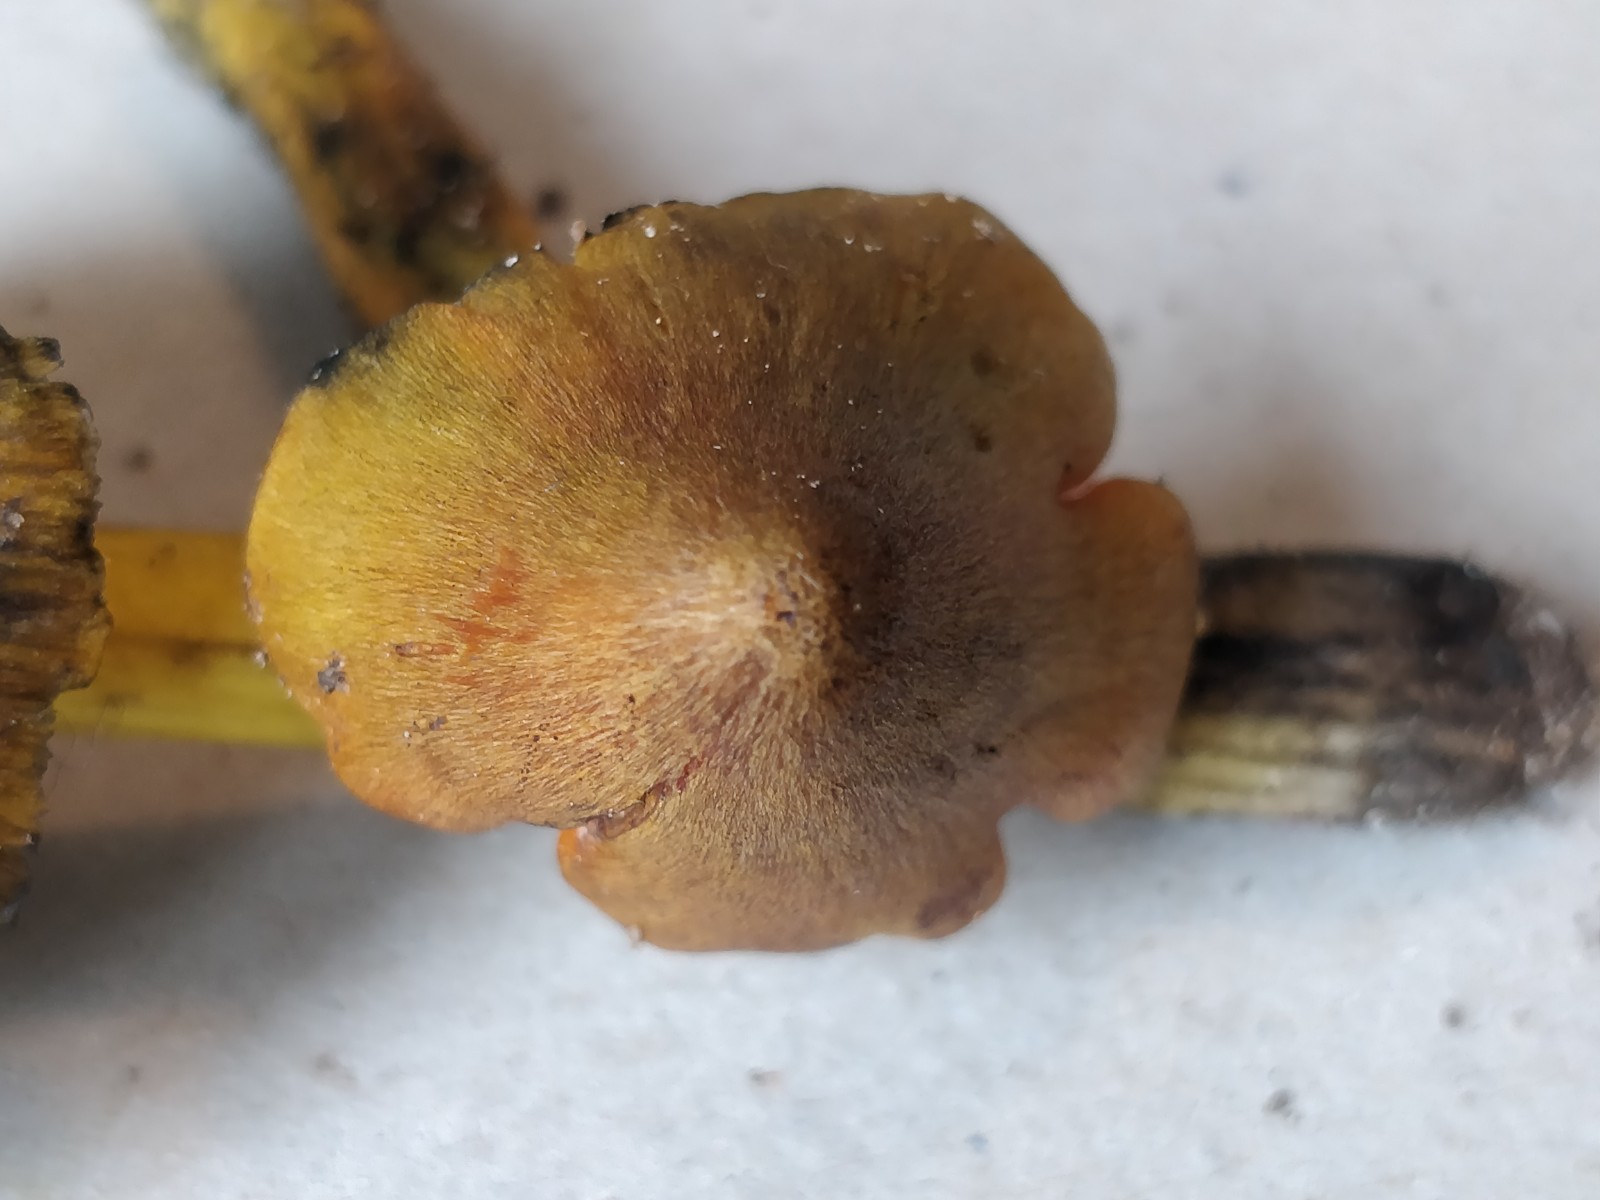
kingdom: Fungi
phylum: Basidiomycota
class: Agaricomycetes
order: Agaricales
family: Hygrophoraceae
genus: Hygrocybe
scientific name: Hygrocybe conica
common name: kegle-vokshat
